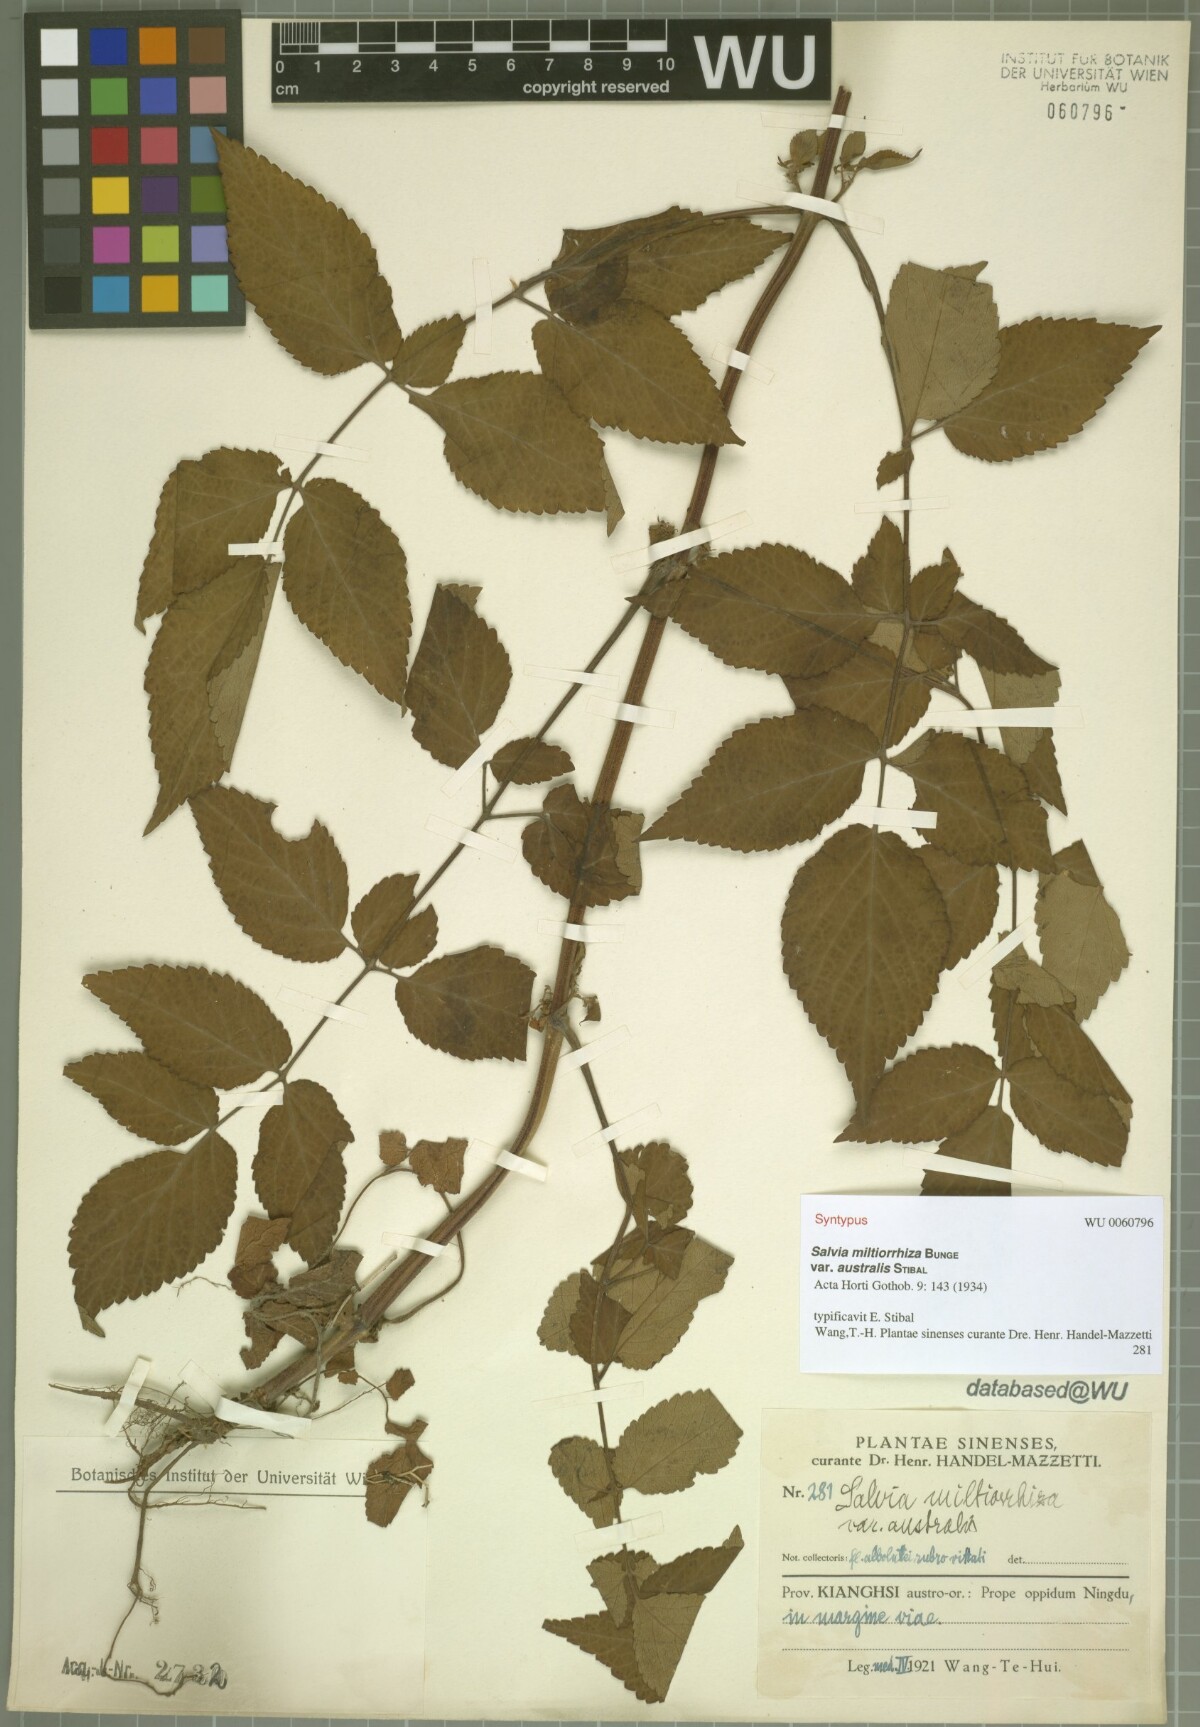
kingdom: Plantae
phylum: Tracheophyta
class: Magnoliopsida
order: Lamiales
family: Lamiaceae
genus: Salvia
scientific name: Salvia bowleyana
